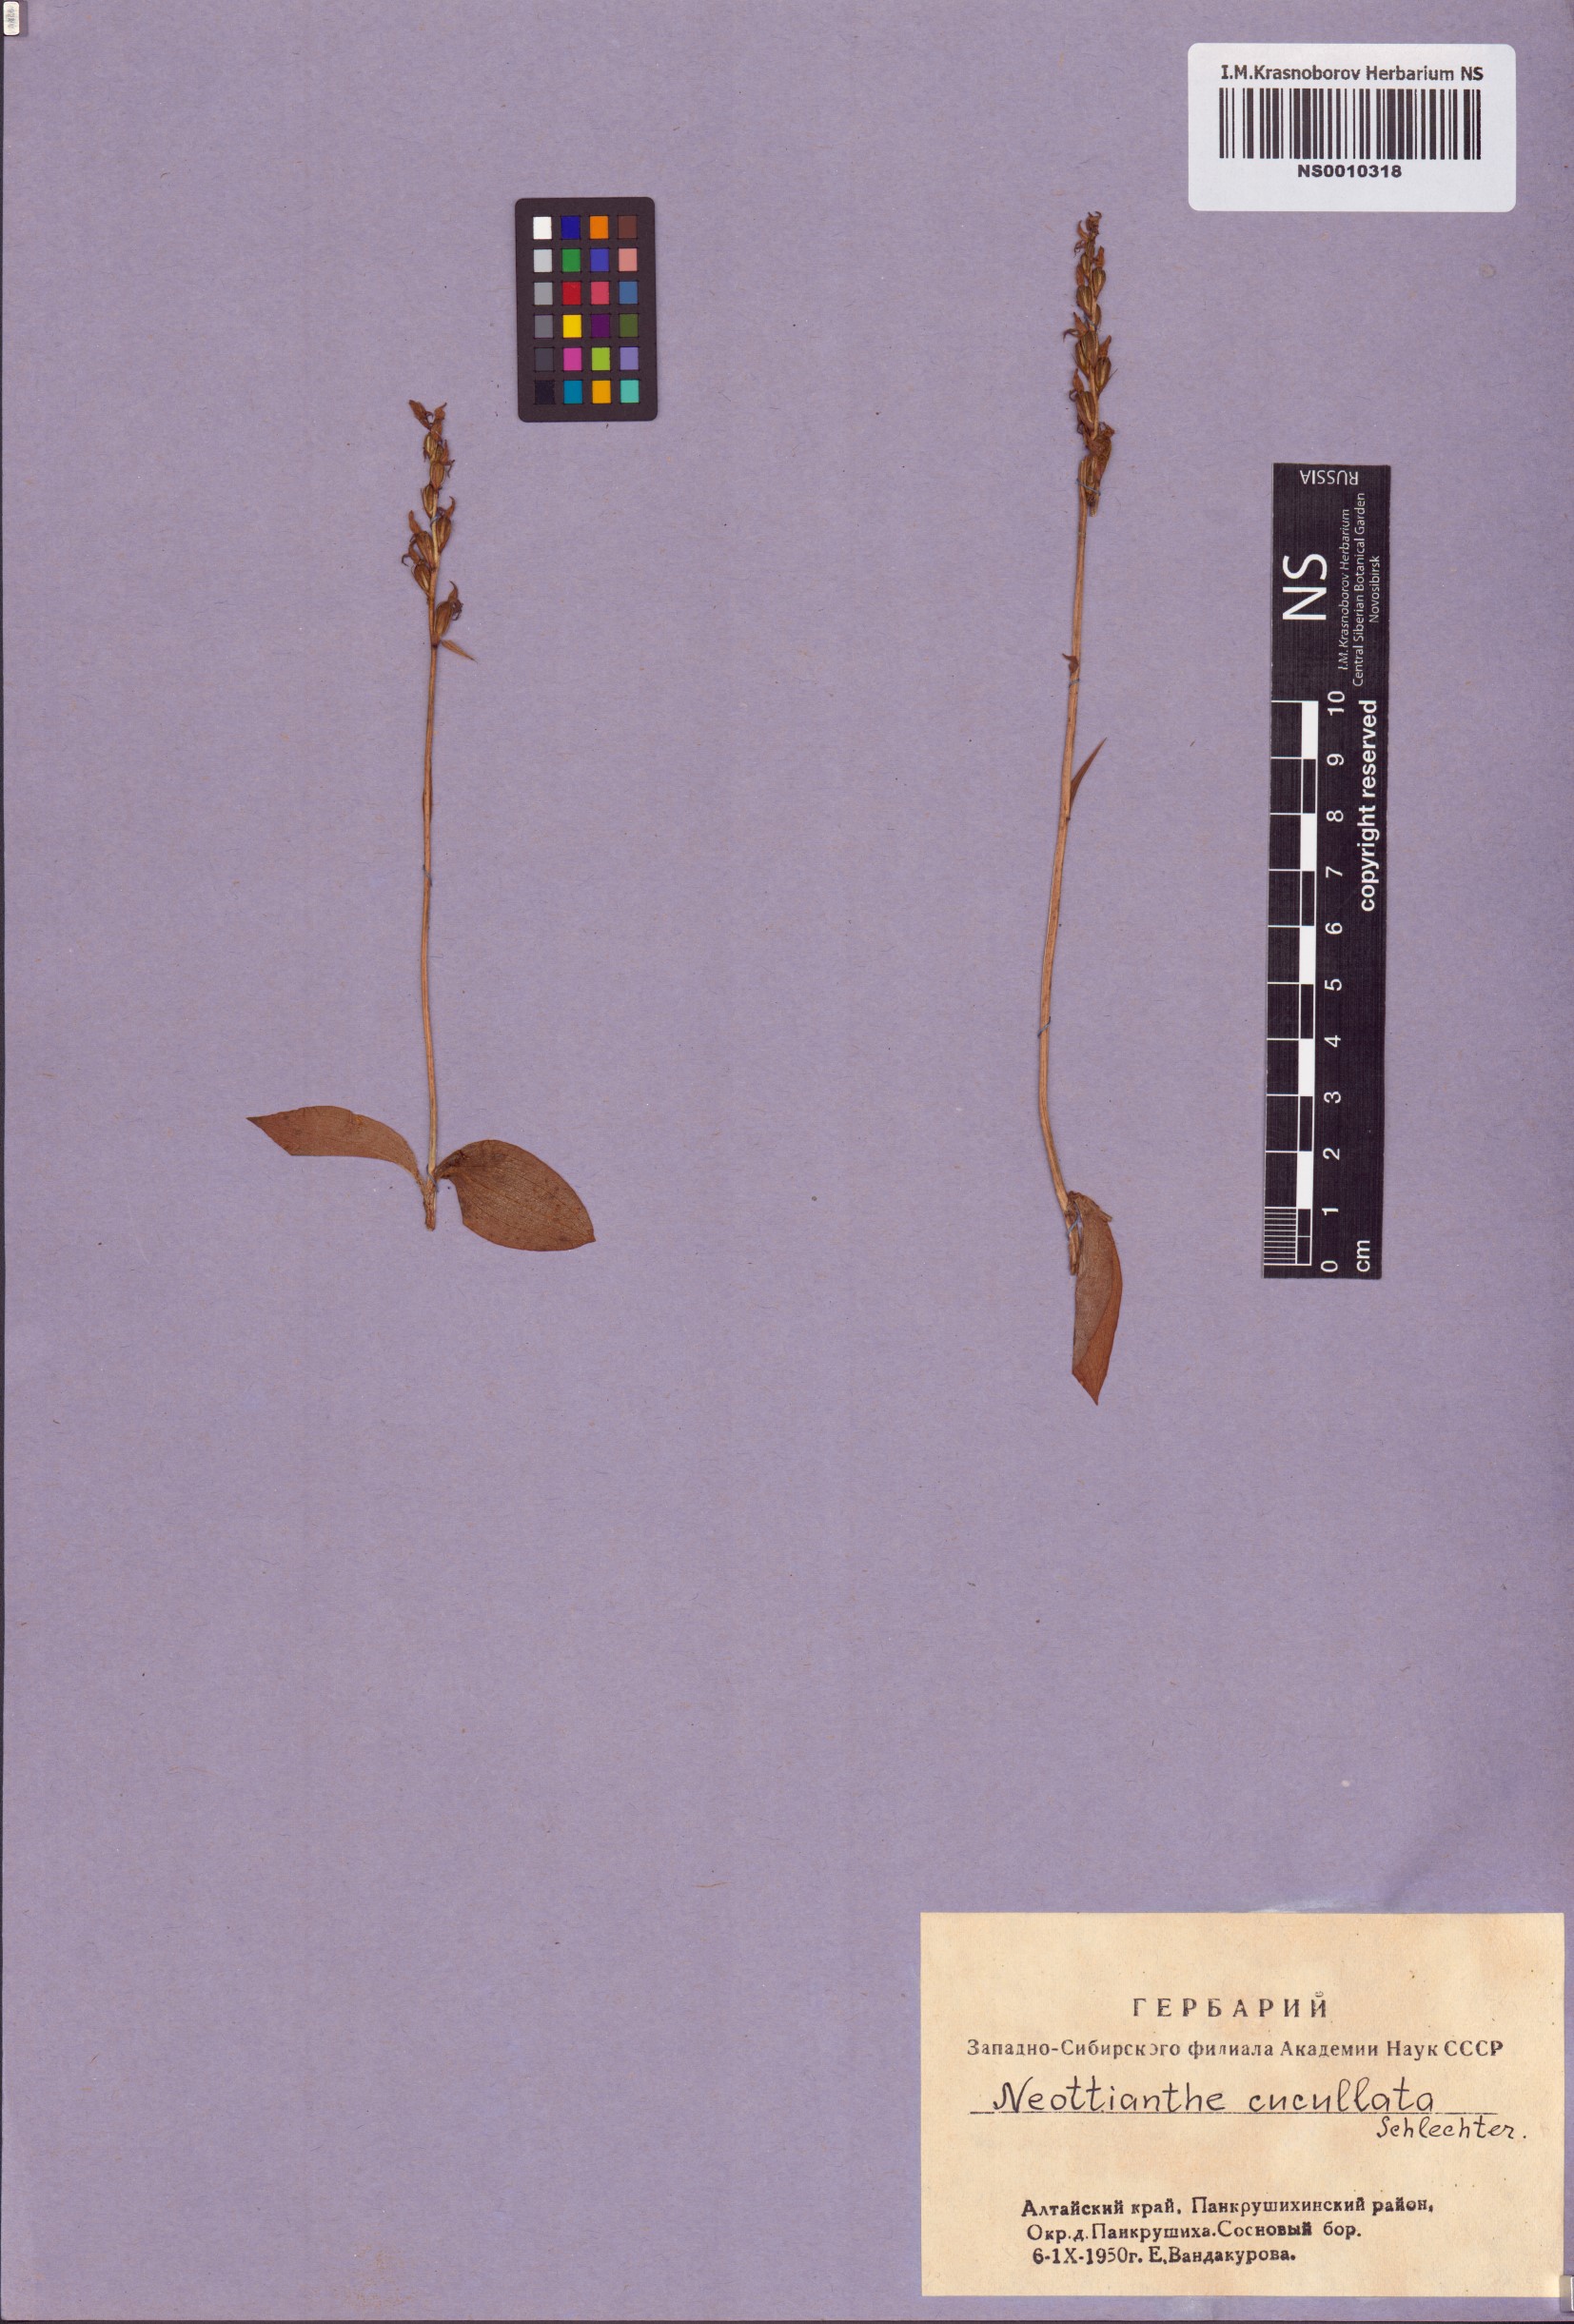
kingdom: Plantae
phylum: Tracheophyta
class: Liliopsida
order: Asparagales
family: Orchidaceae
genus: Hemipilia
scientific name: Hemipilia cucullata
